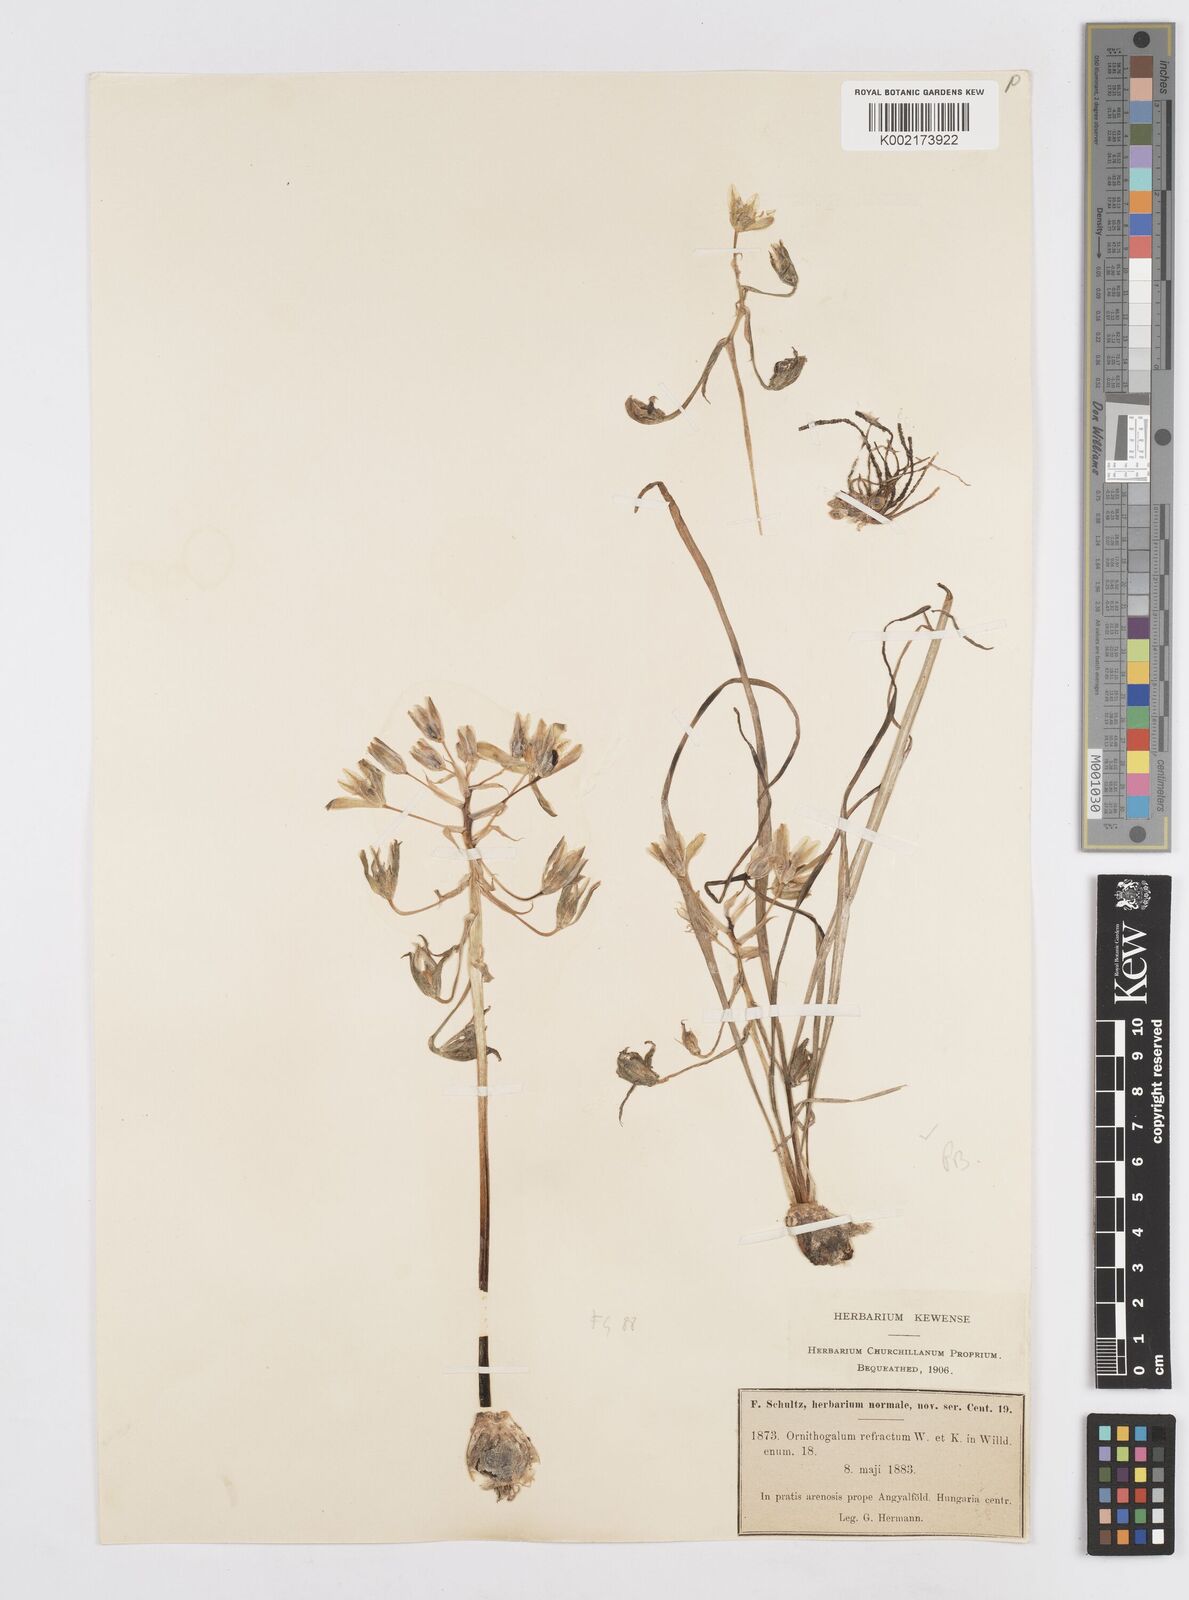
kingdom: Plantae
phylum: Tracheophyta
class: Liliopsida
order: Asparagales
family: Asparagaceae
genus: Ornithogalum
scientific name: Ornithogalum refractum
